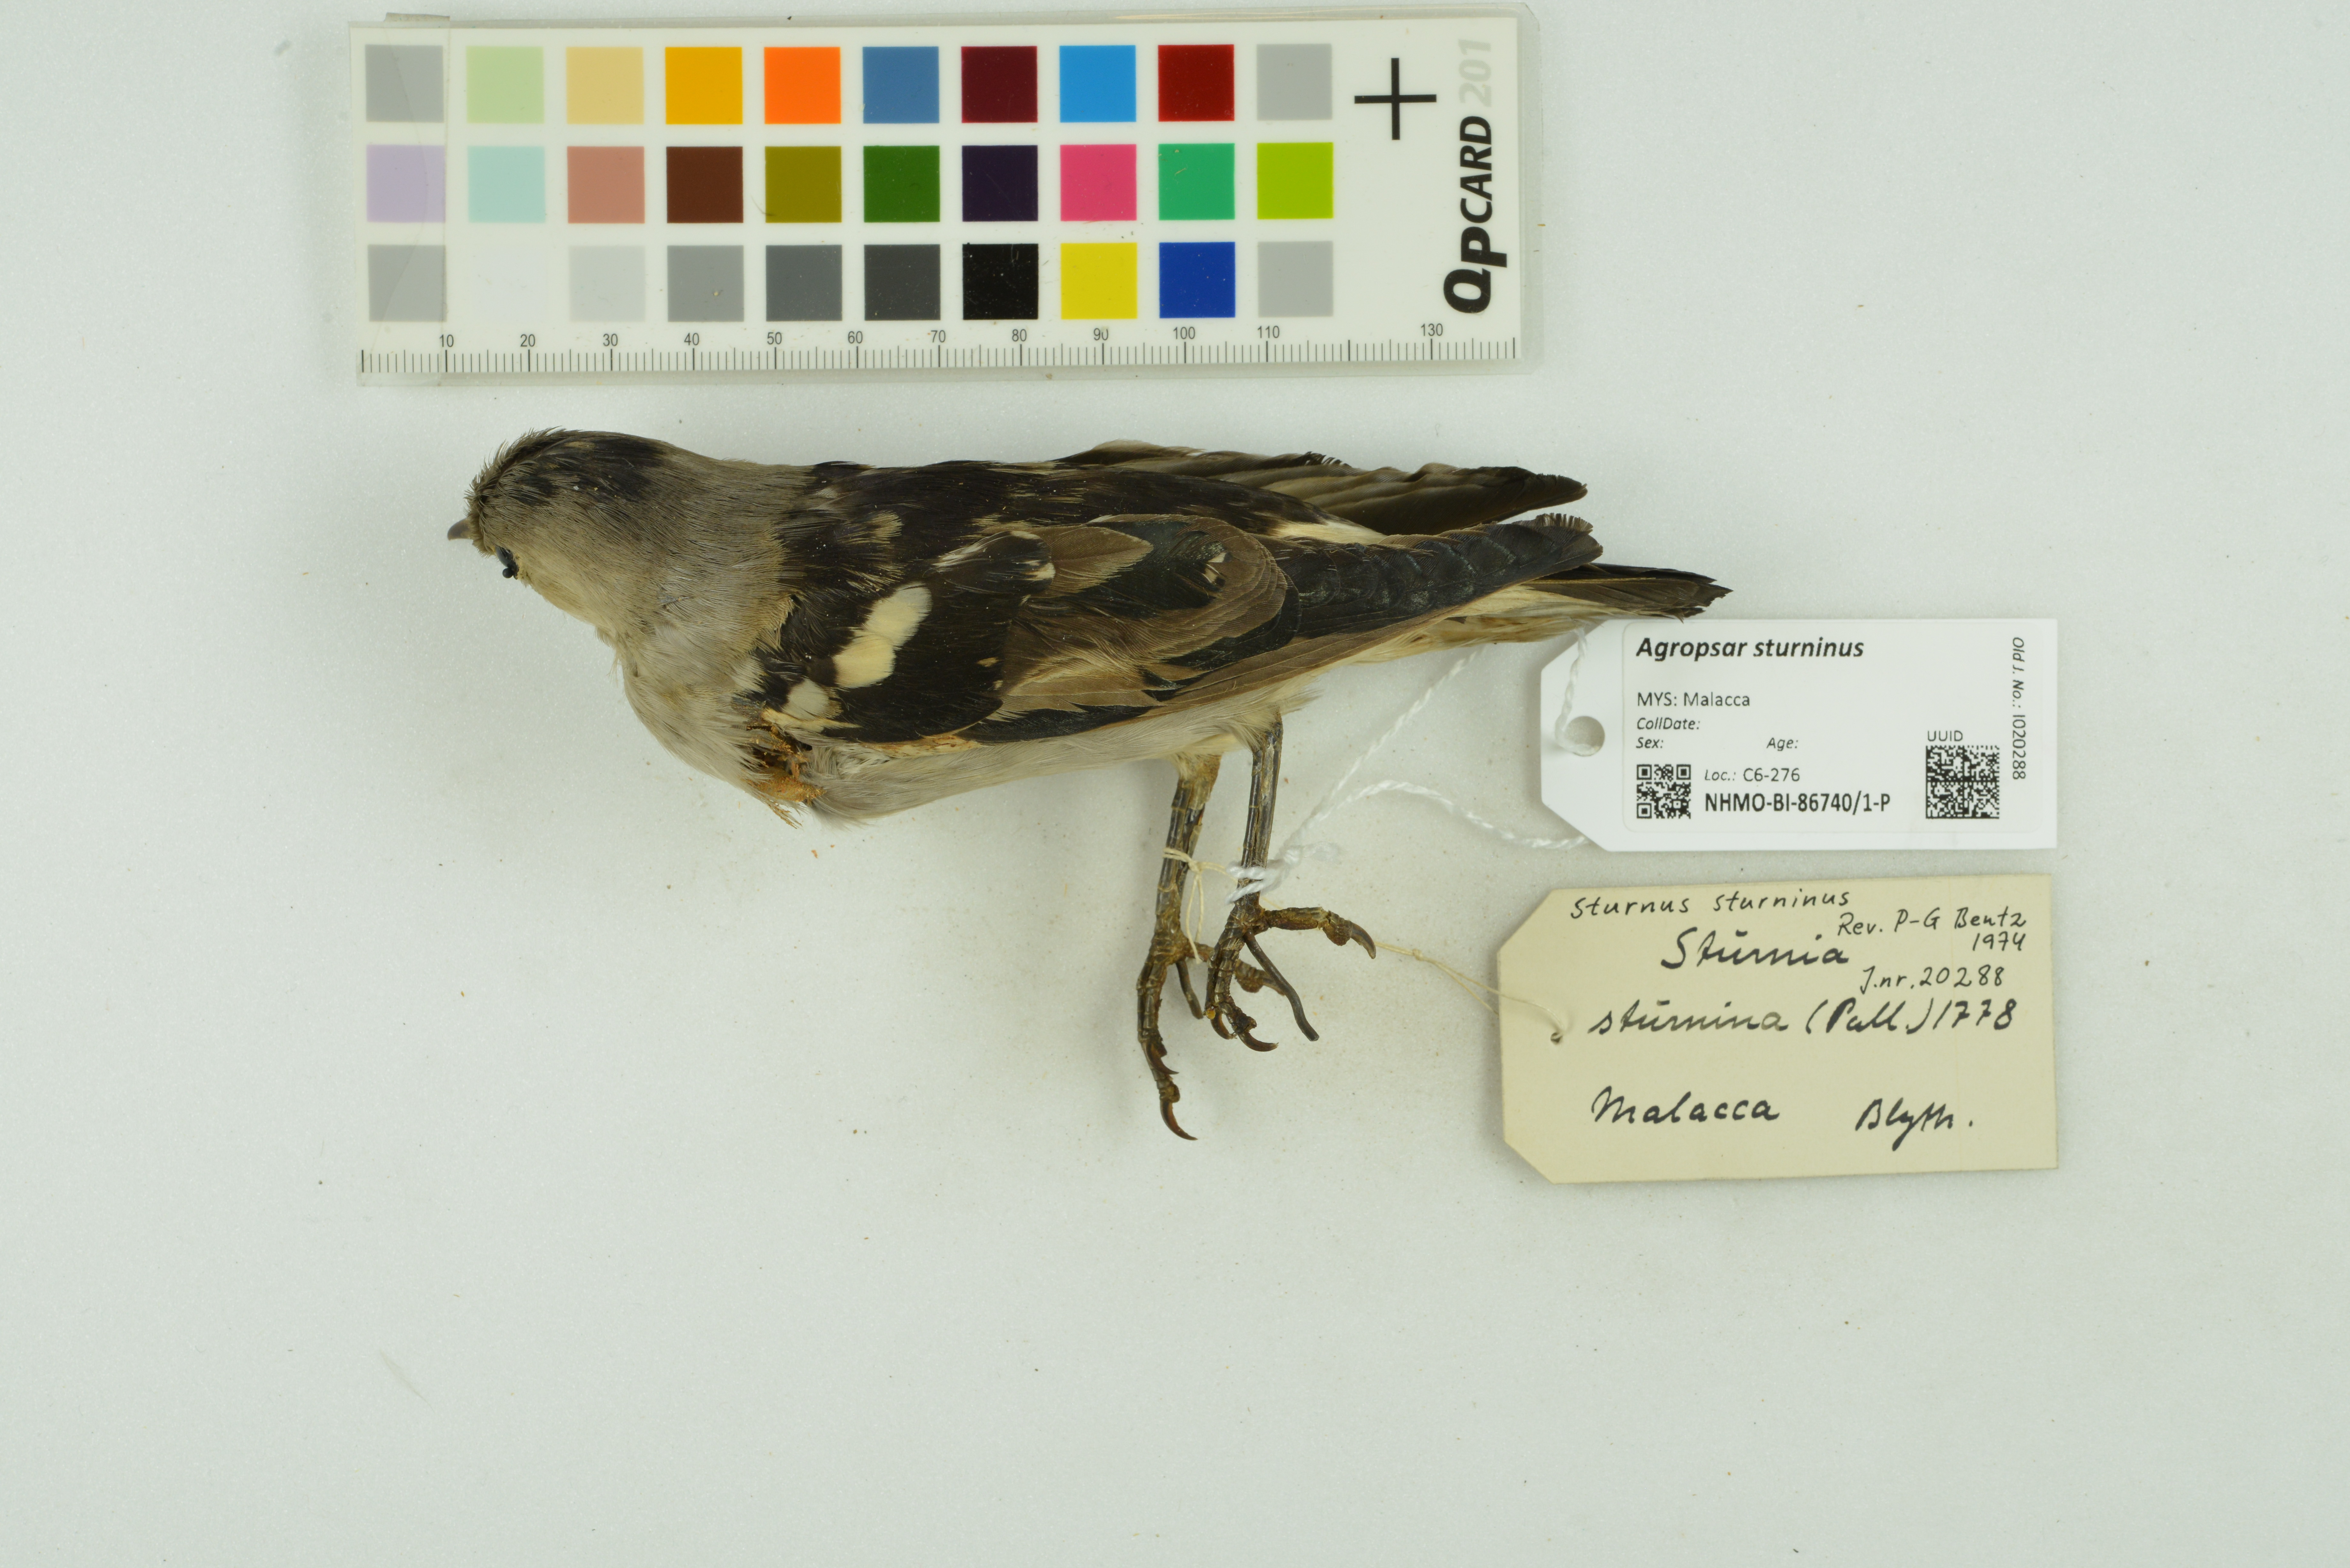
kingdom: Animalia
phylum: Chordata
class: Aves
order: Passeriformes
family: Sturnidae
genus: Agropsar
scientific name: Agropsar sturninus
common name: Daurian starling
